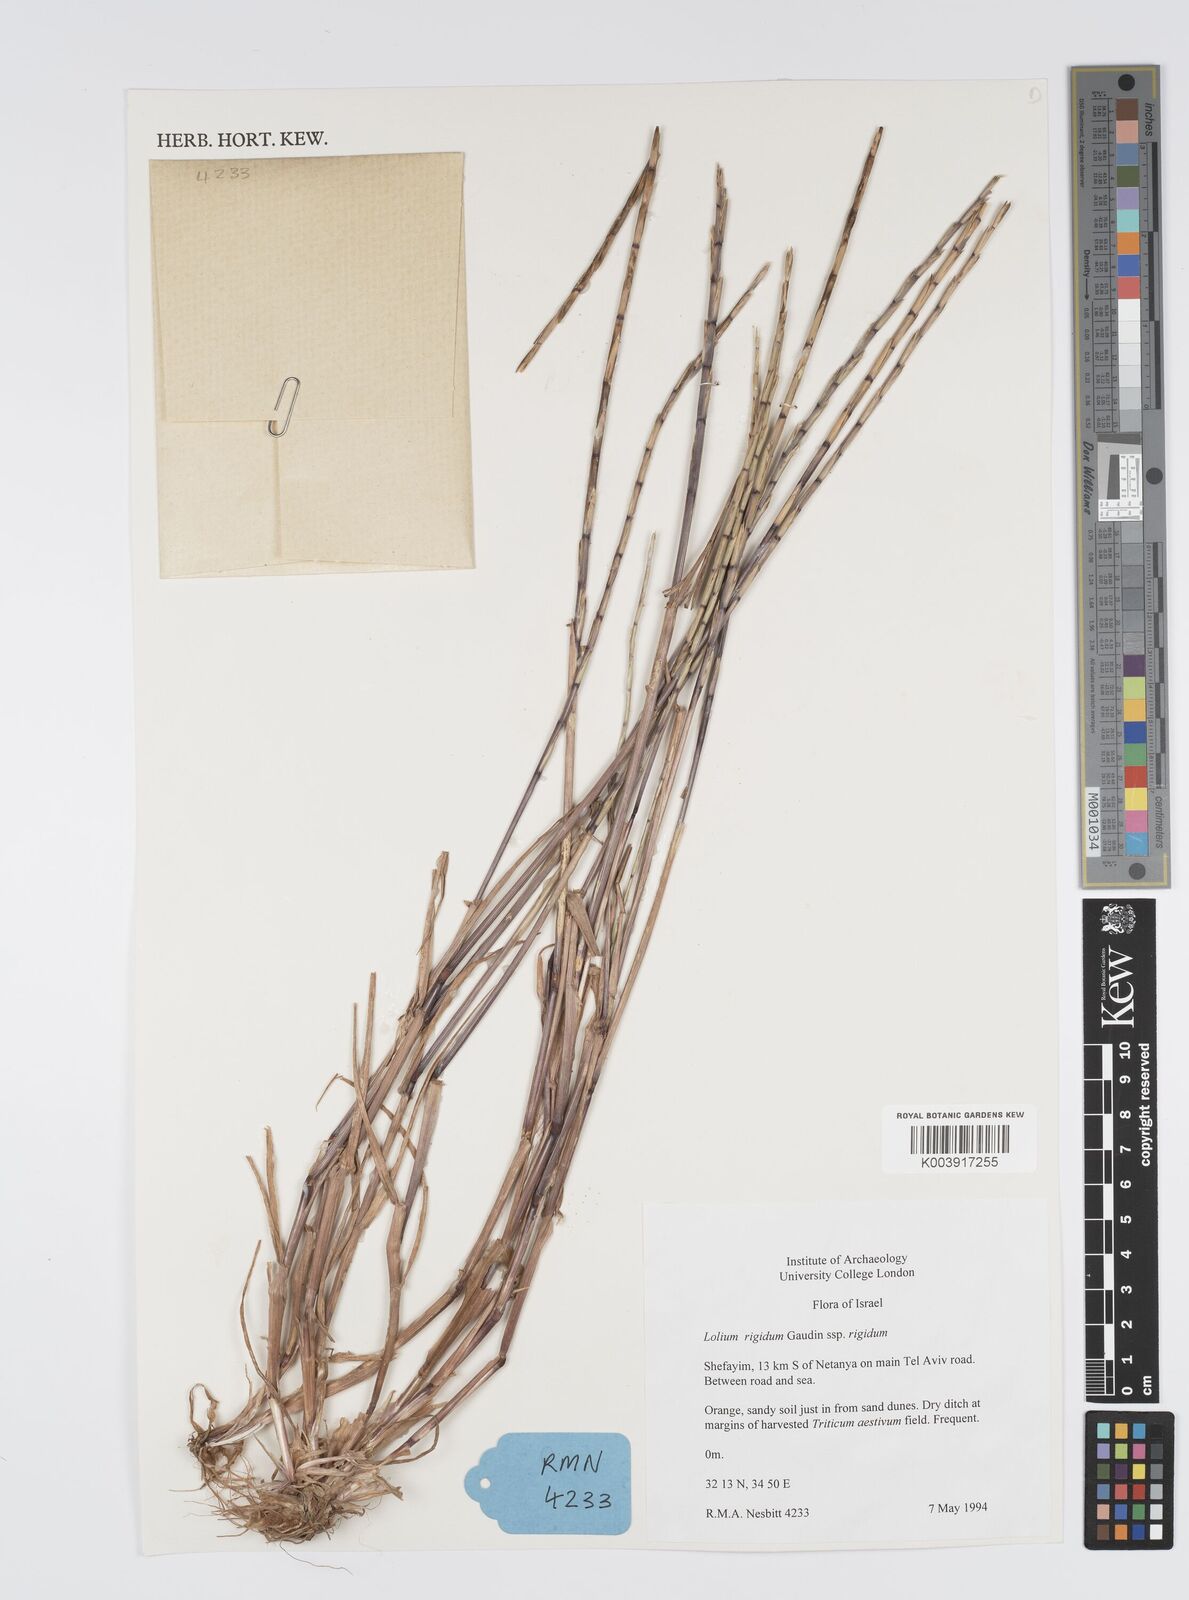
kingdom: Plantae
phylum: Tracheophyta
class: Liliopsida
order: Poales
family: Poaceae
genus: Lolium
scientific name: Lolium rigidum
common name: Wimmera ryegrass
